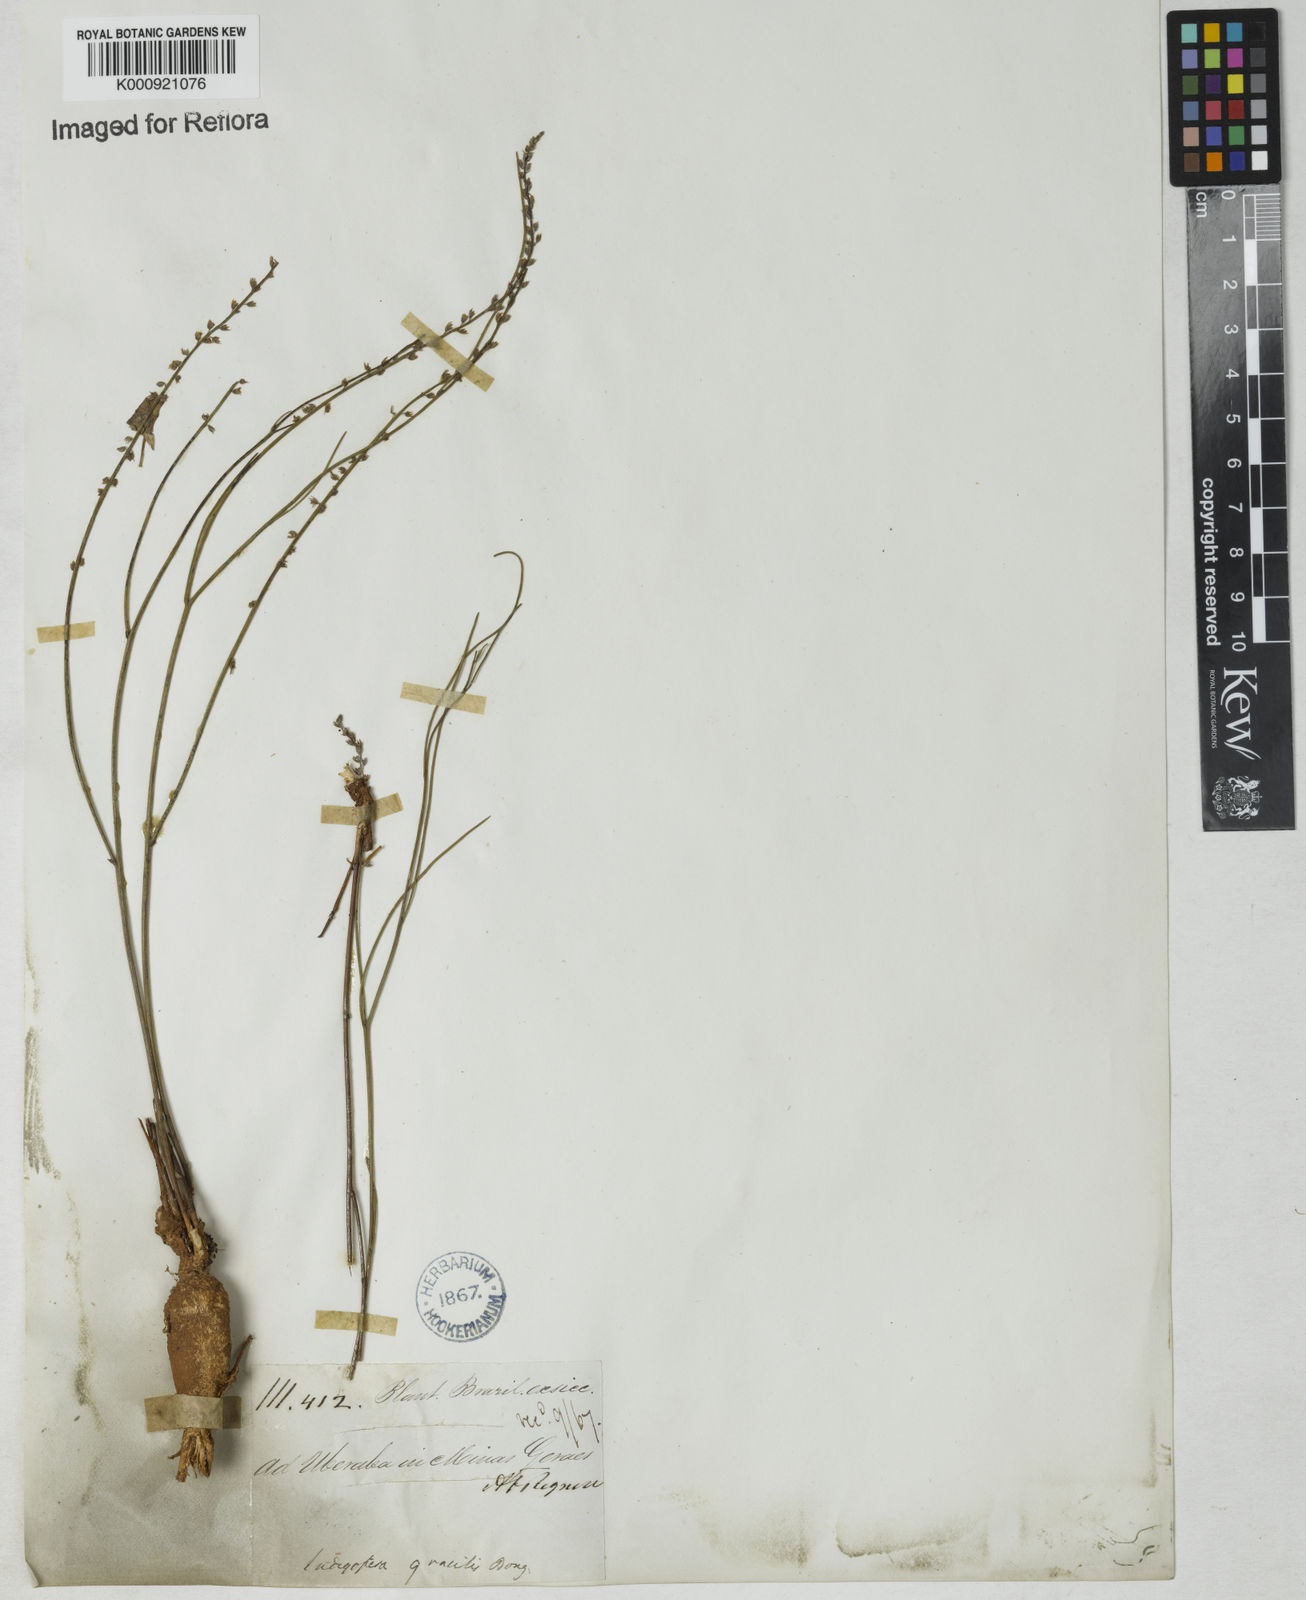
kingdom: Plantae
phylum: Tracheophyta
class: Magnoliopsida
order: Fabales
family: Fabaceae
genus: Indigofera
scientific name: Indigofera bongardiana
